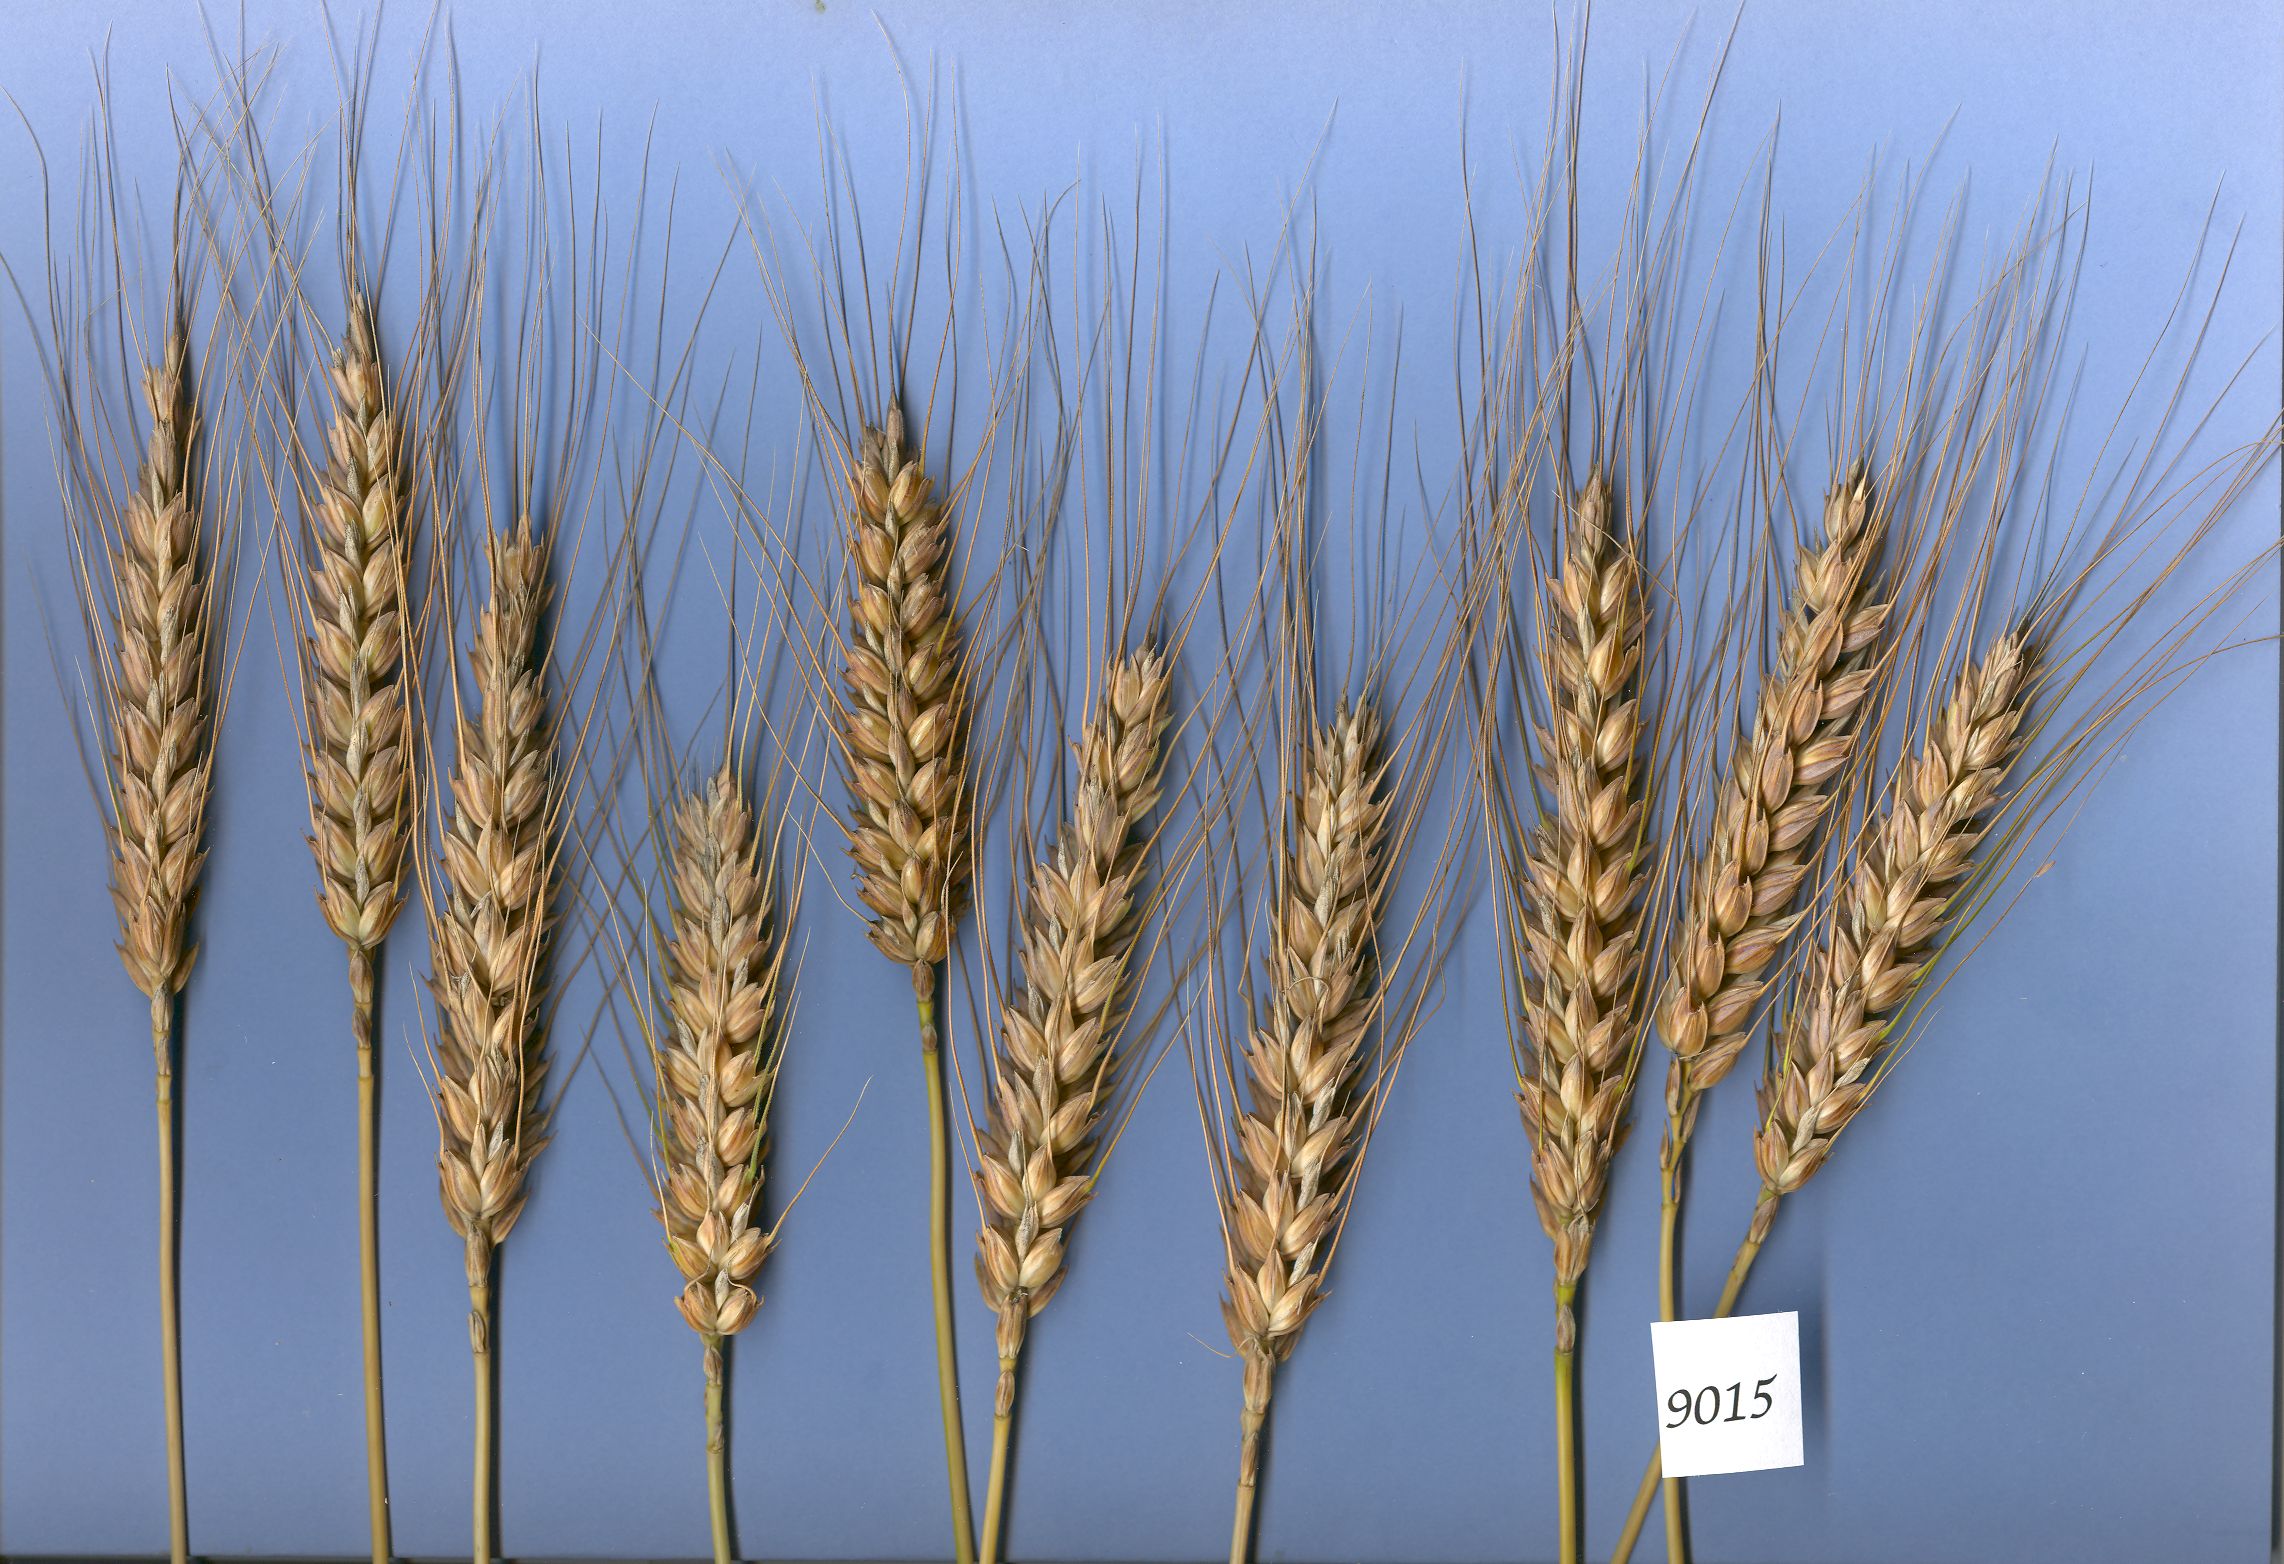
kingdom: Plantae
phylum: Tracheophyta
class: Liliopsida
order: Poales
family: Poaceae
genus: Triticum
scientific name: Triticum aestivum
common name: Common wheat
